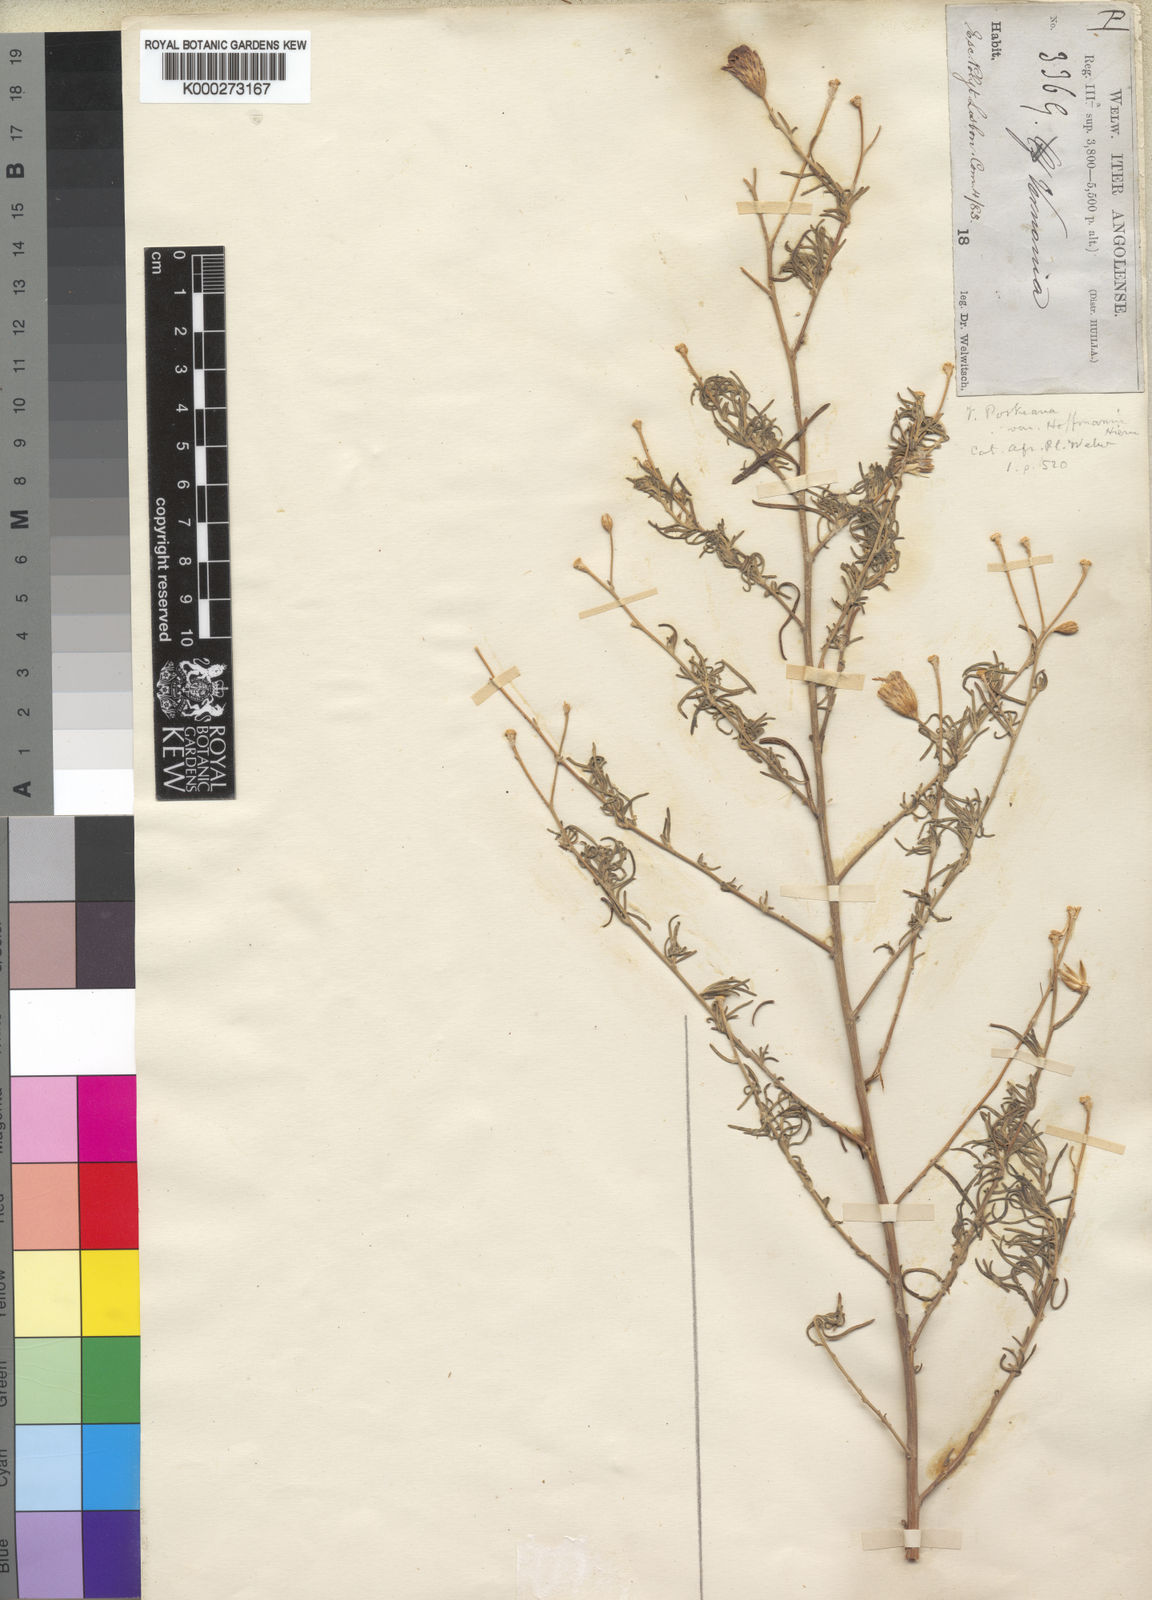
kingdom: Plantae
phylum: Tracheophyta
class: Magnoliopsida
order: Asterales
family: Asteraceae
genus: Crystallopollen
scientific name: Crystallopollen angustifolium
